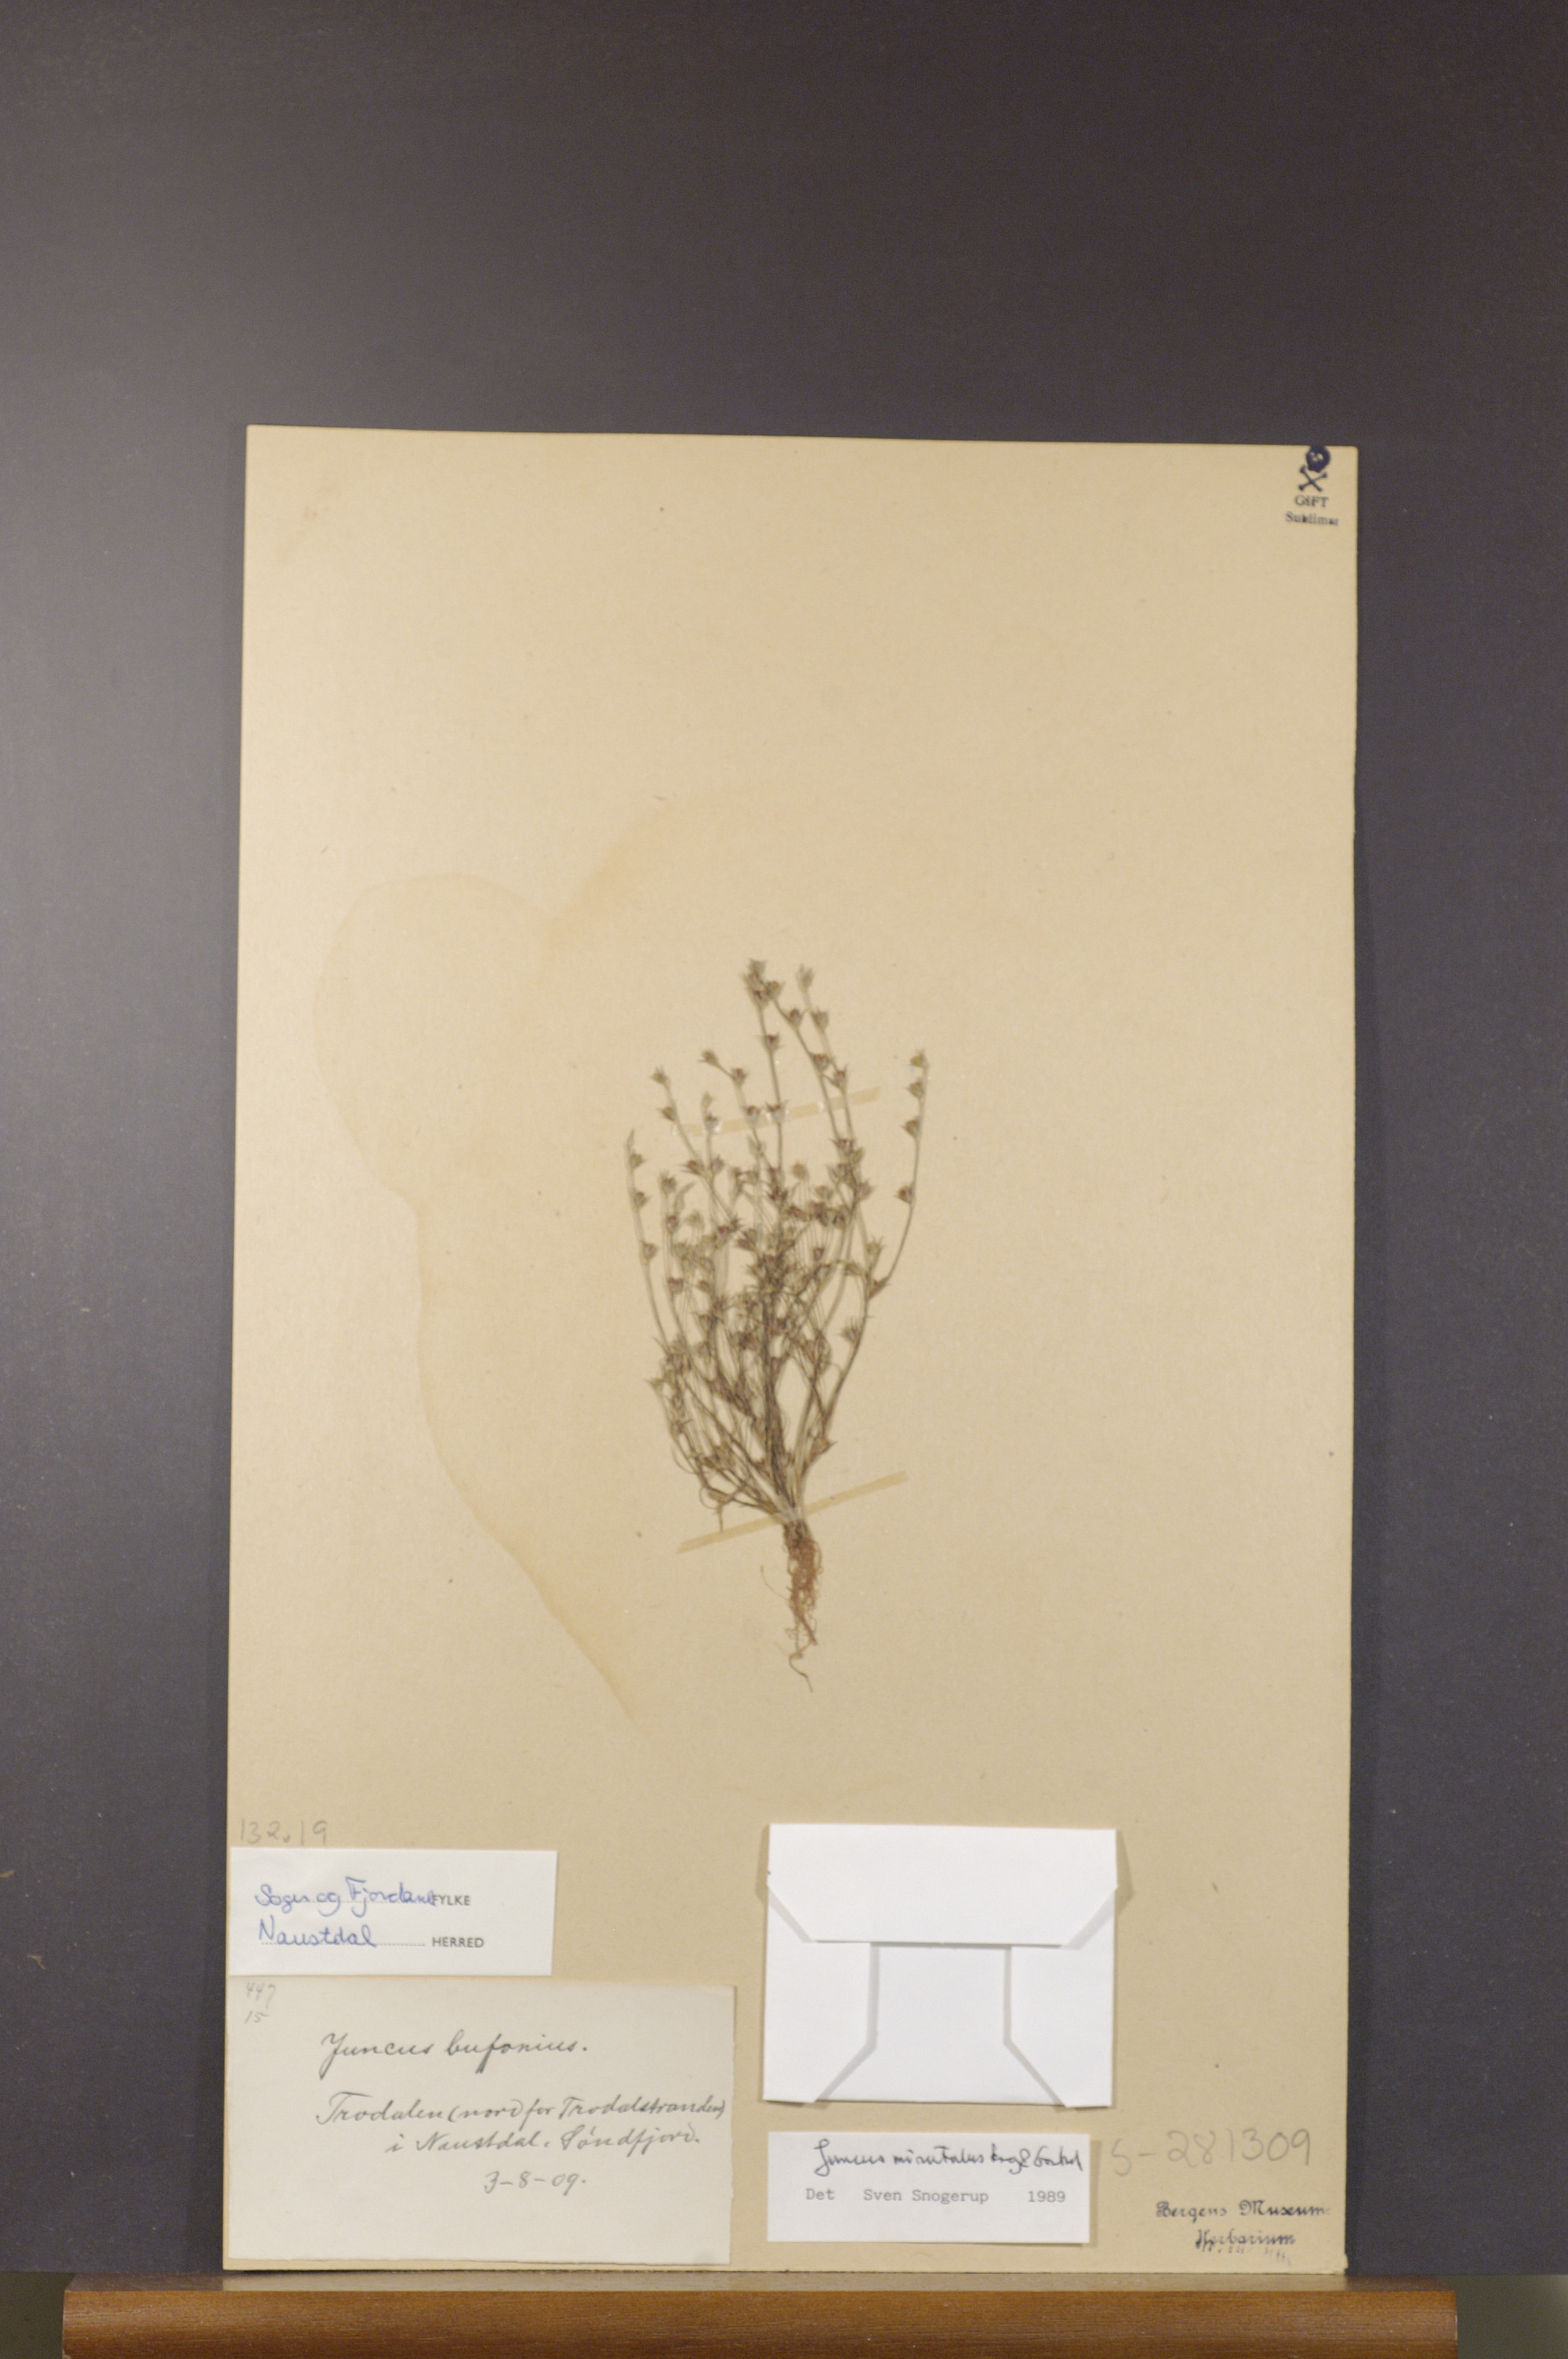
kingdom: Plantae
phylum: Tracheophyta
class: Liliopsida
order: Poales
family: Juncaceae
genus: Juncus
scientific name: Juncus minutulus
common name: Minute rush
